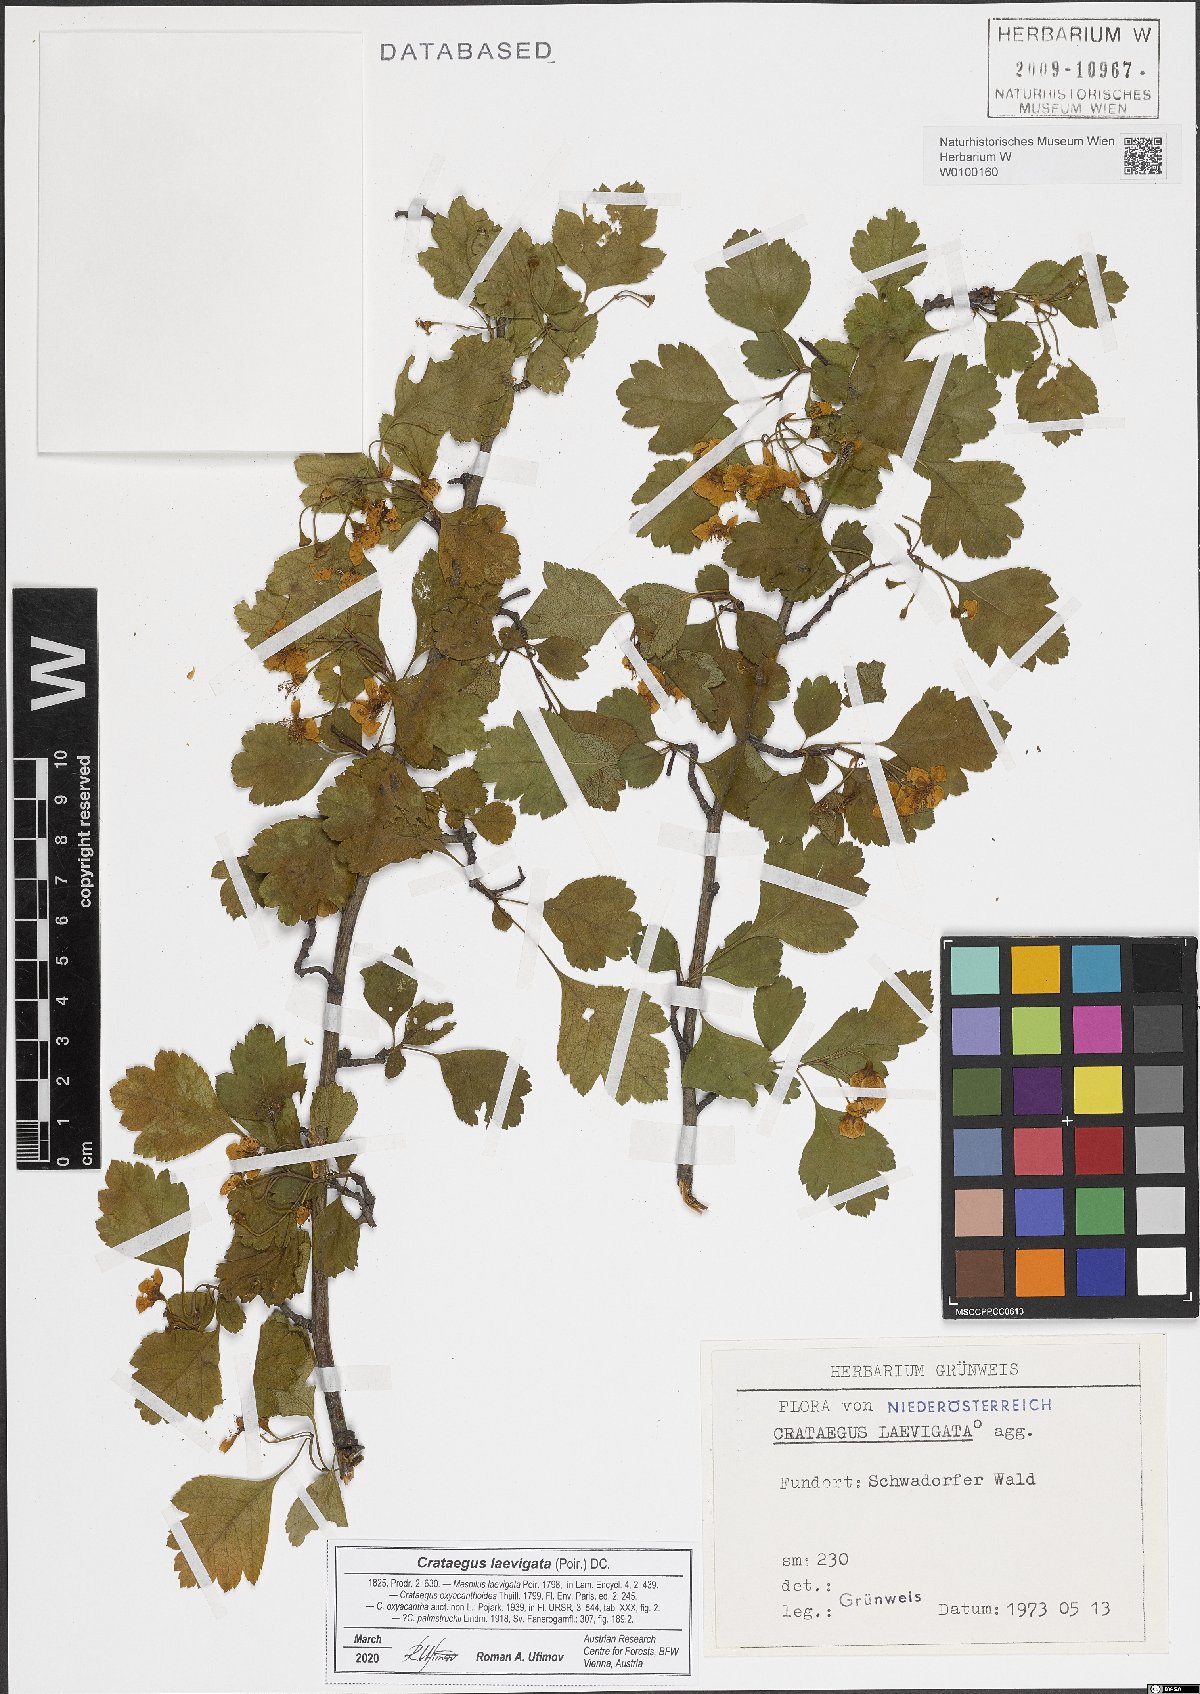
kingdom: Plantae
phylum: Tracheophyta
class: Magnoliopsida
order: Rosales
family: Rosaceae
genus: Crataegus
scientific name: Crataegus laevigata
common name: Midland hawthorn
